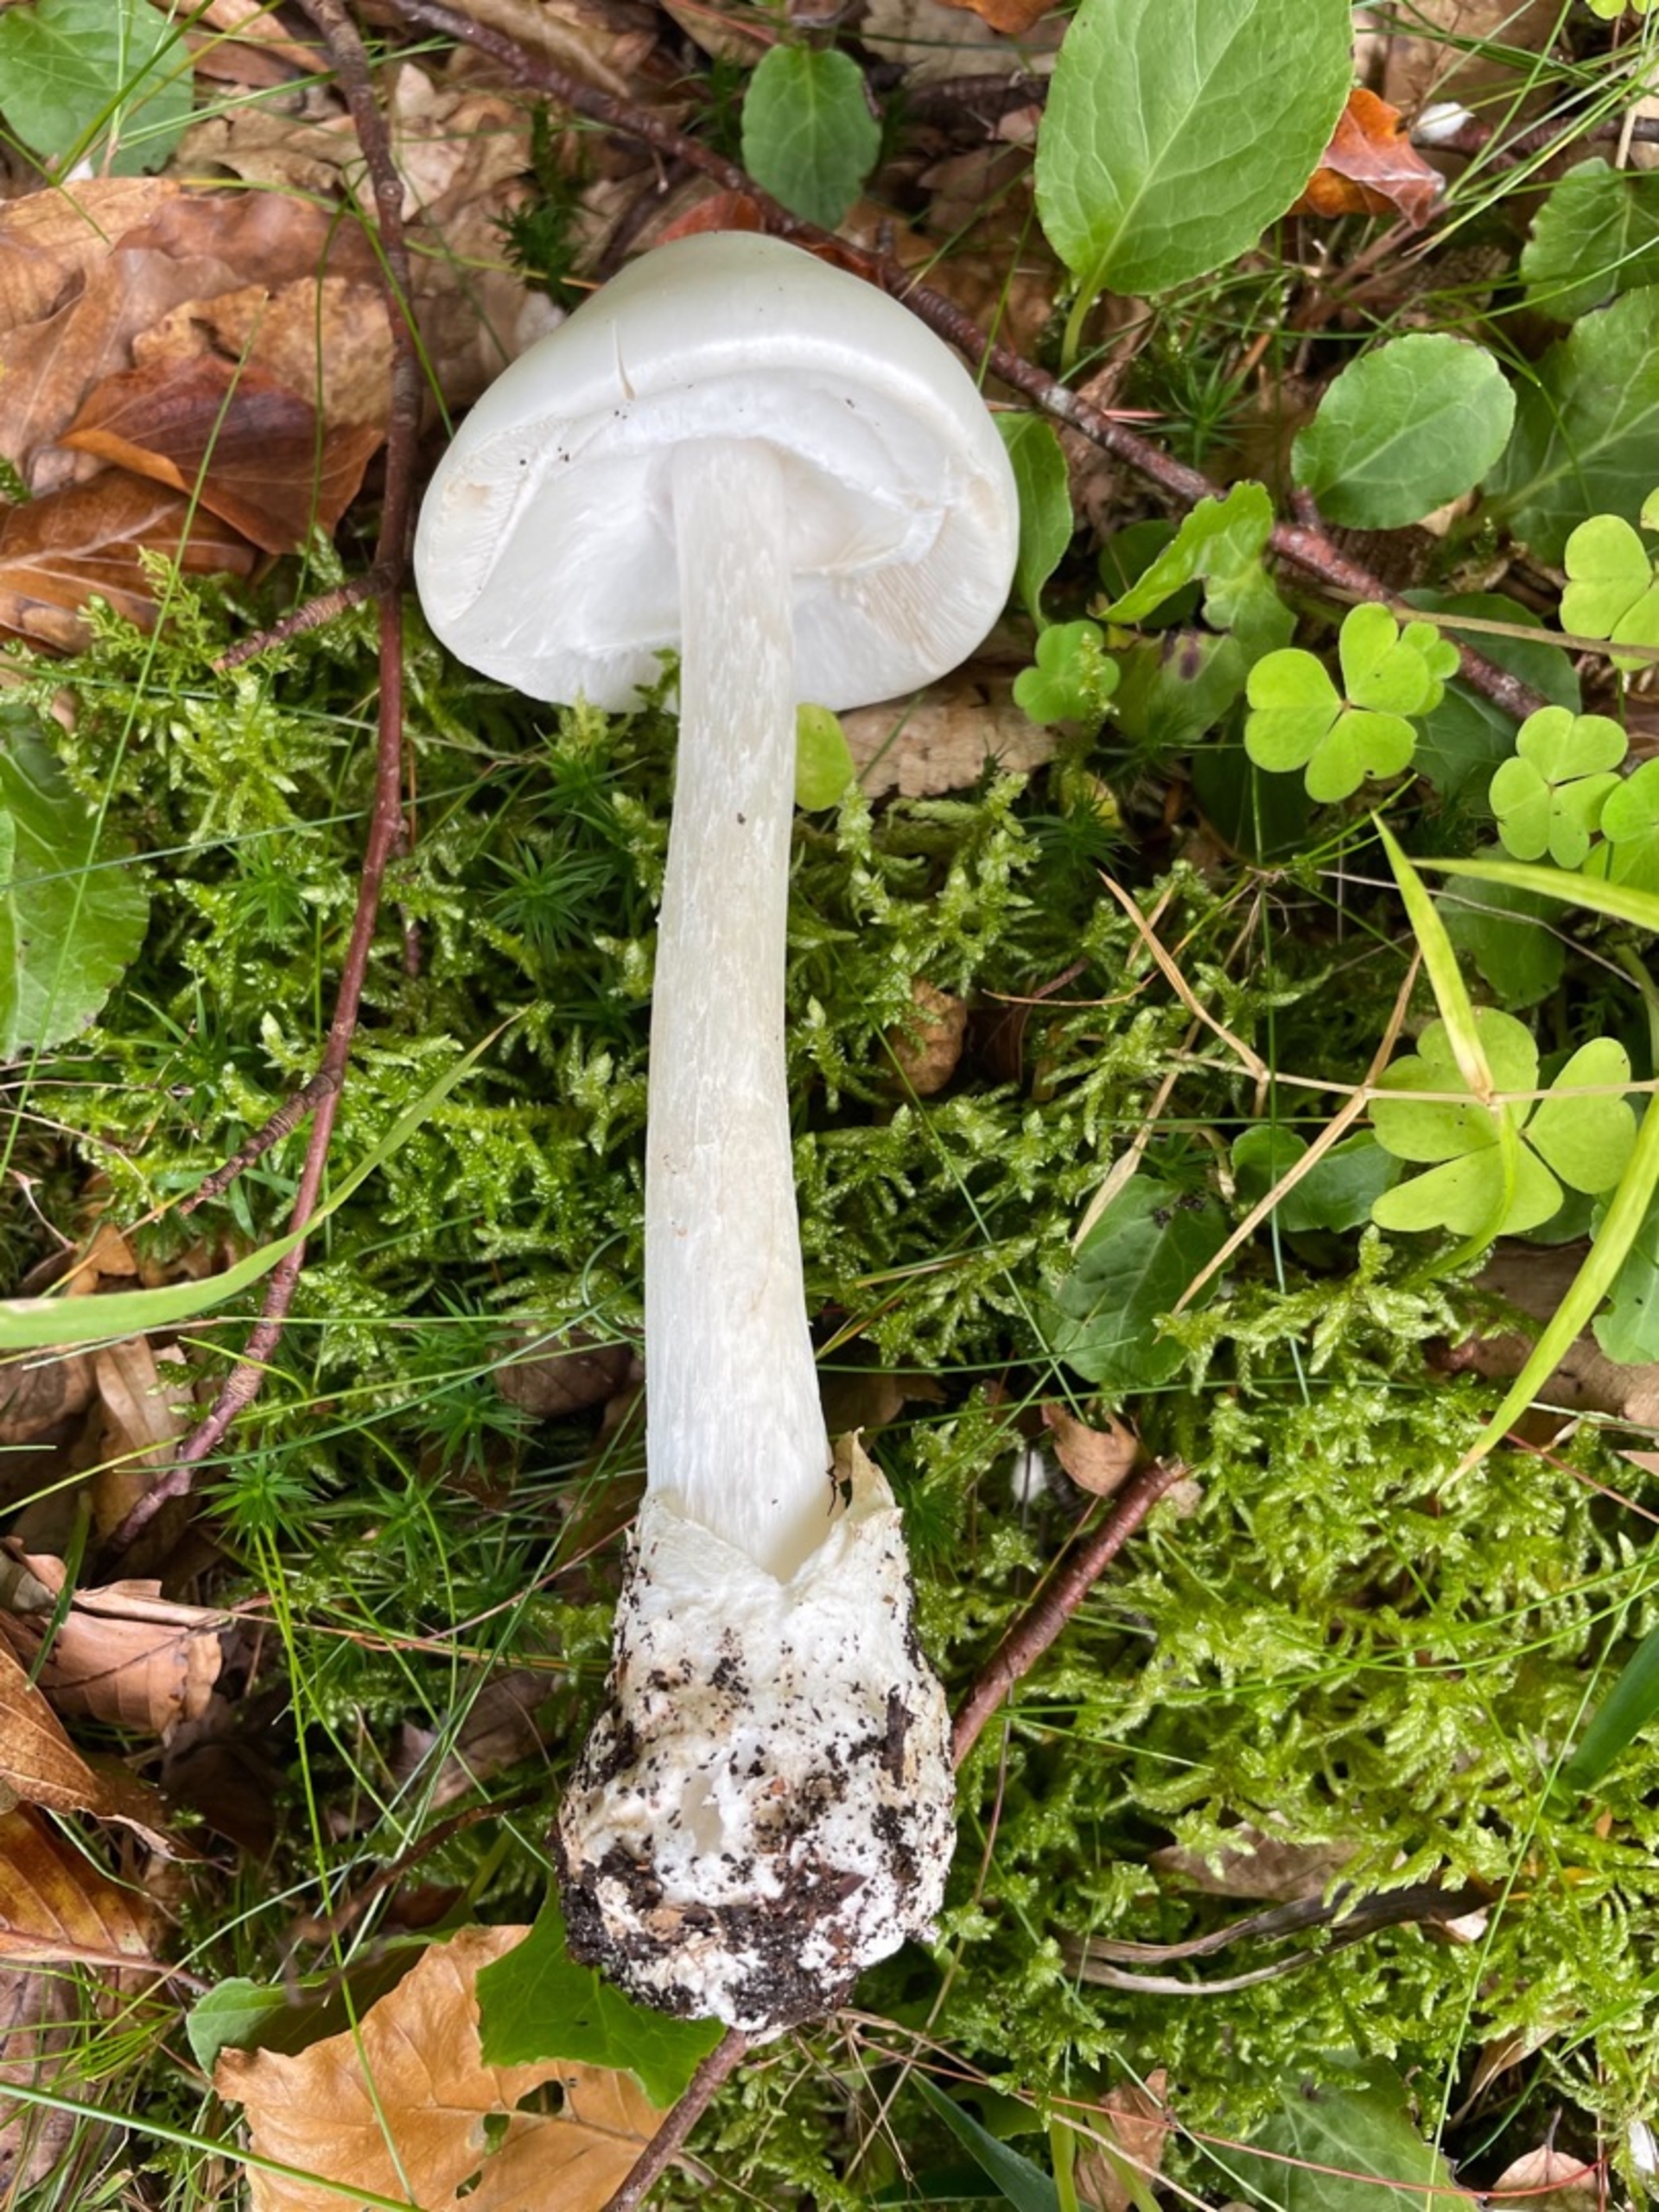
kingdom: Fungi
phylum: Basidiomycota
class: Agaricomycetes
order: Agaricales
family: Amanitaceae
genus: Amanita
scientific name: Amanita virosa
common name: Snehvid fluesvamp
